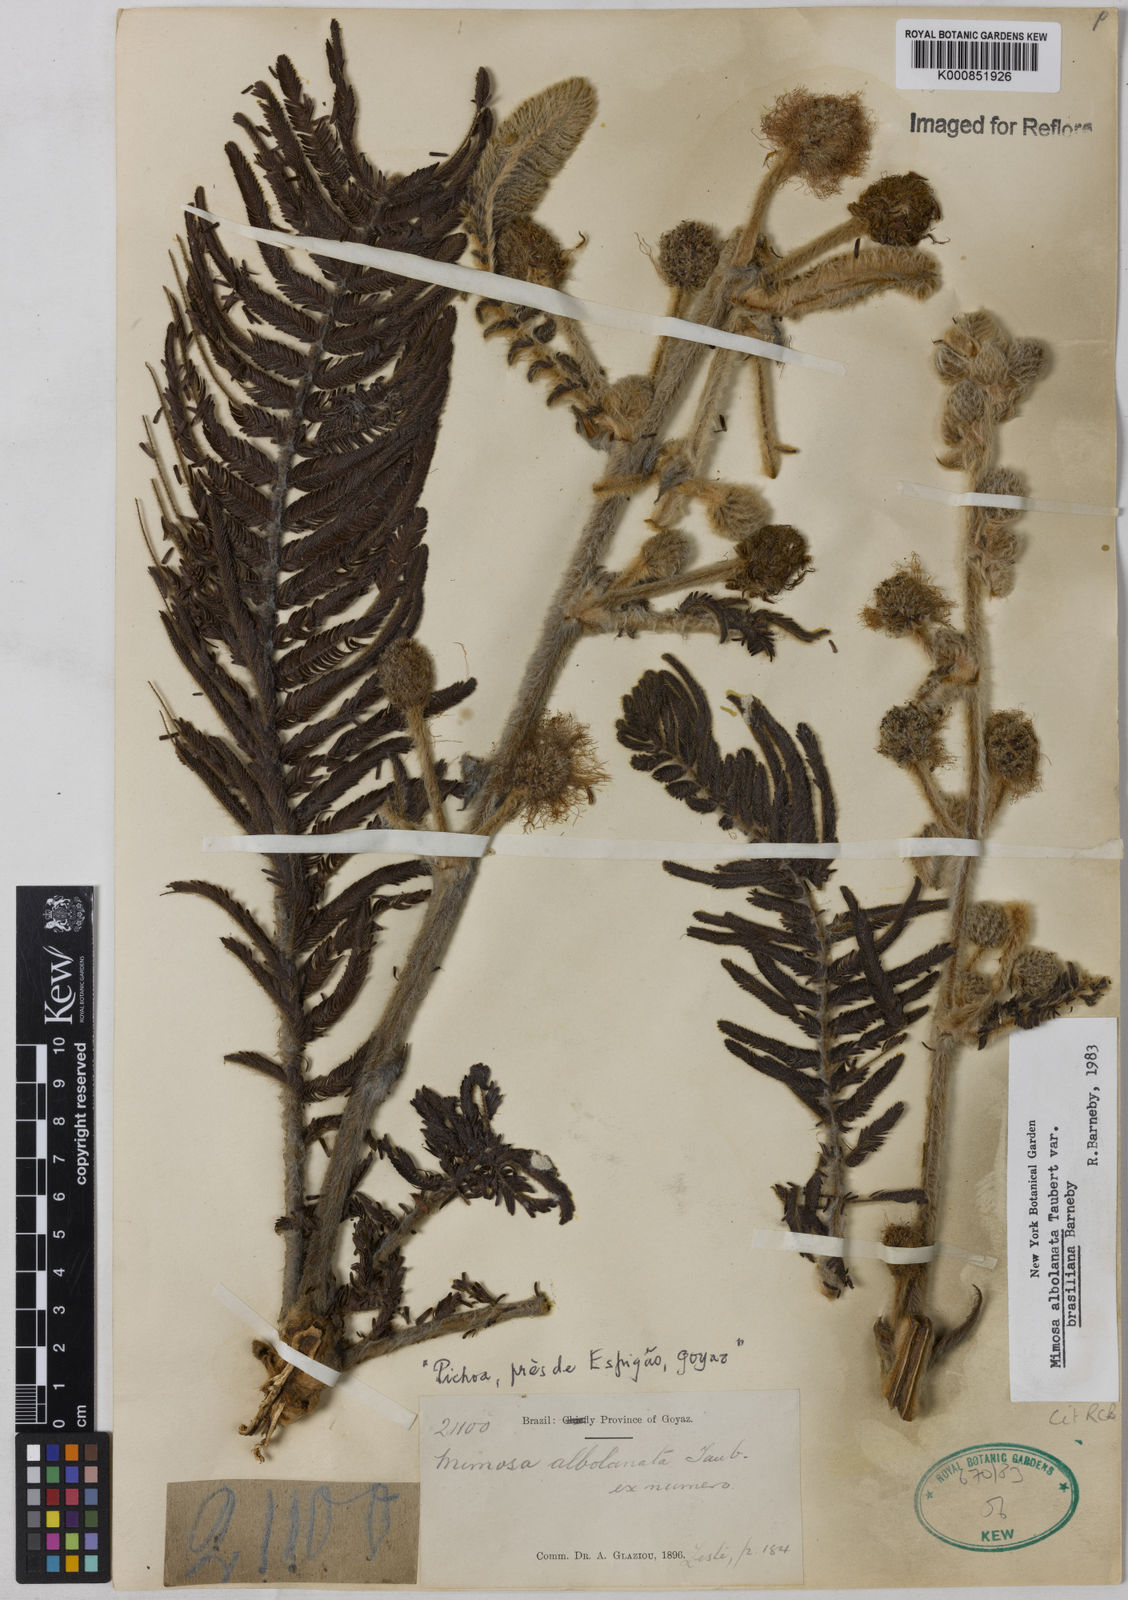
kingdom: Plantae
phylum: Tracheophyta
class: Magnoliopsida
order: Fabales
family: Fabaceae
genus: Mimosa
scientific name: Mimosa albolanata
